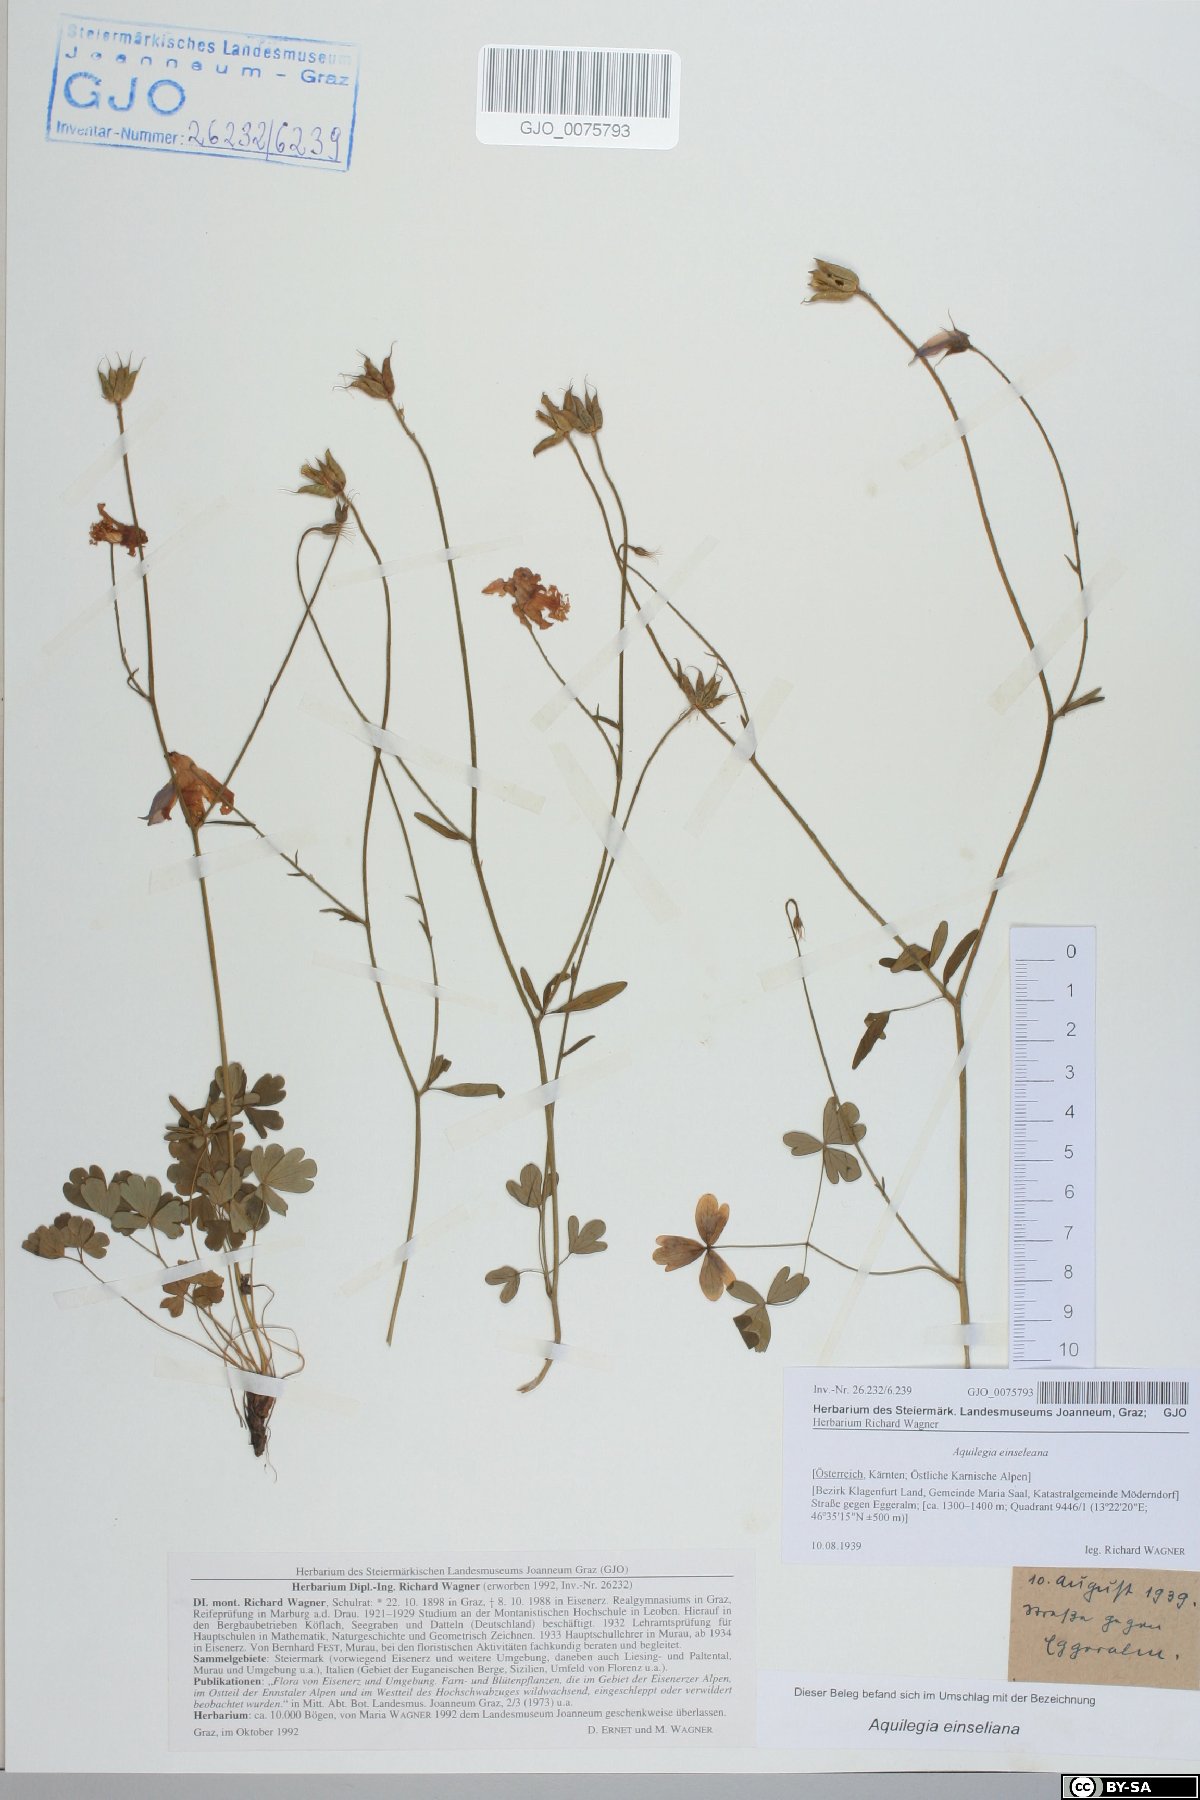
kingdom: Plantae
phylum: Tracheophyta
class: Magnoliopsida
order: Ranunculales
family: Ranunculaceae
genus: Aquilegia
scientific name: Aquilegia einseleana
